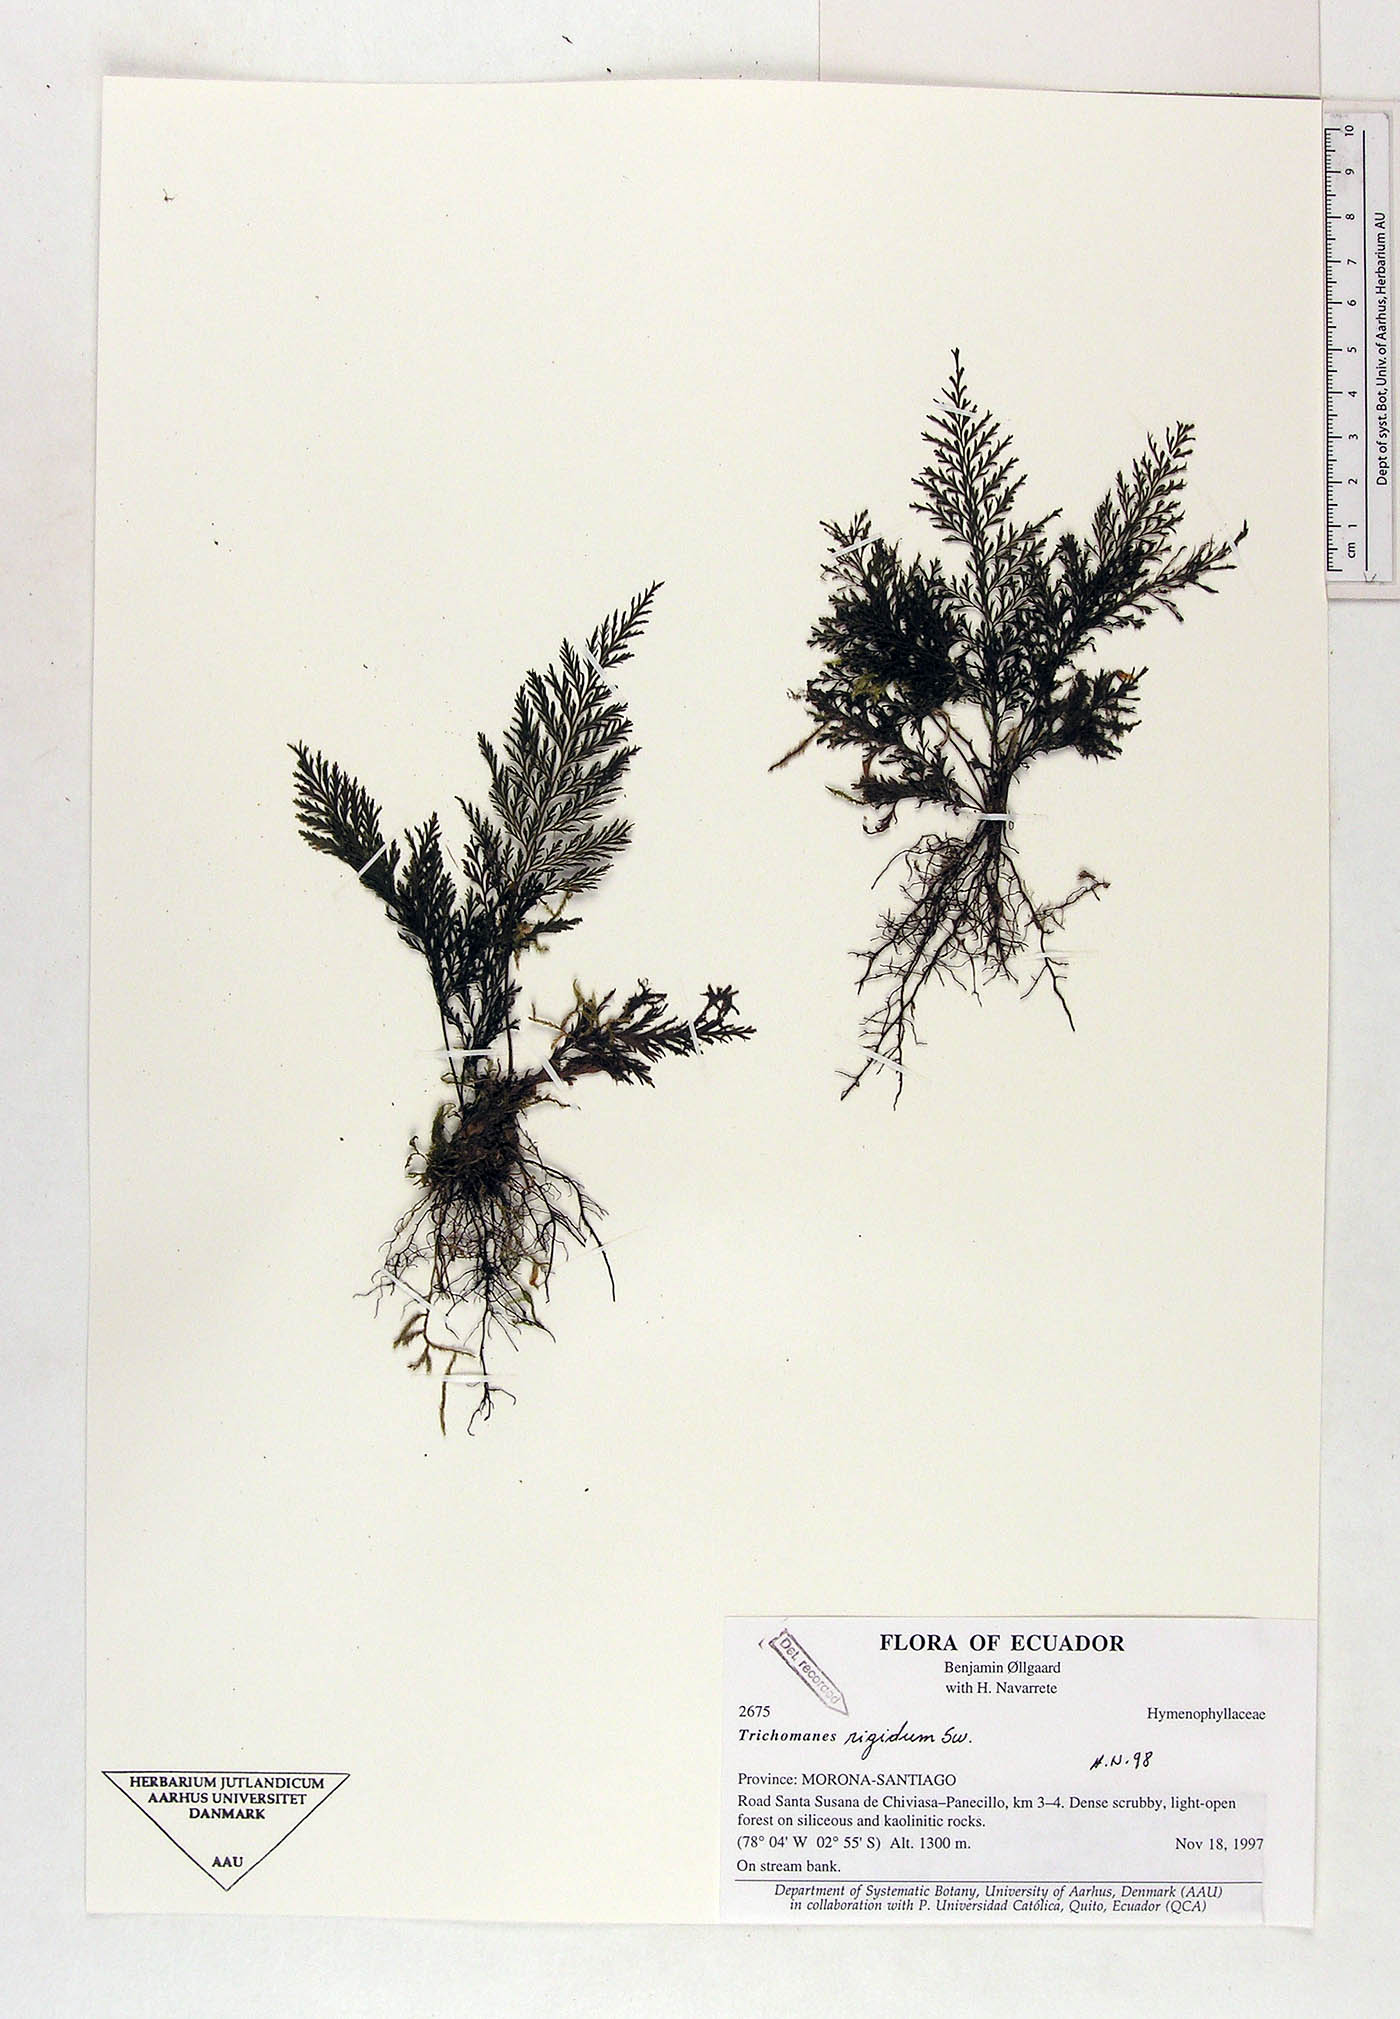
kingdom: Plantae
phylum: Tracheophyta
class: Polypodiopsida
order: Hymenophyllales
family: Hymenophyllaceae
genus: Abrodictyum
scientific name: Abrodictyum rigidum
